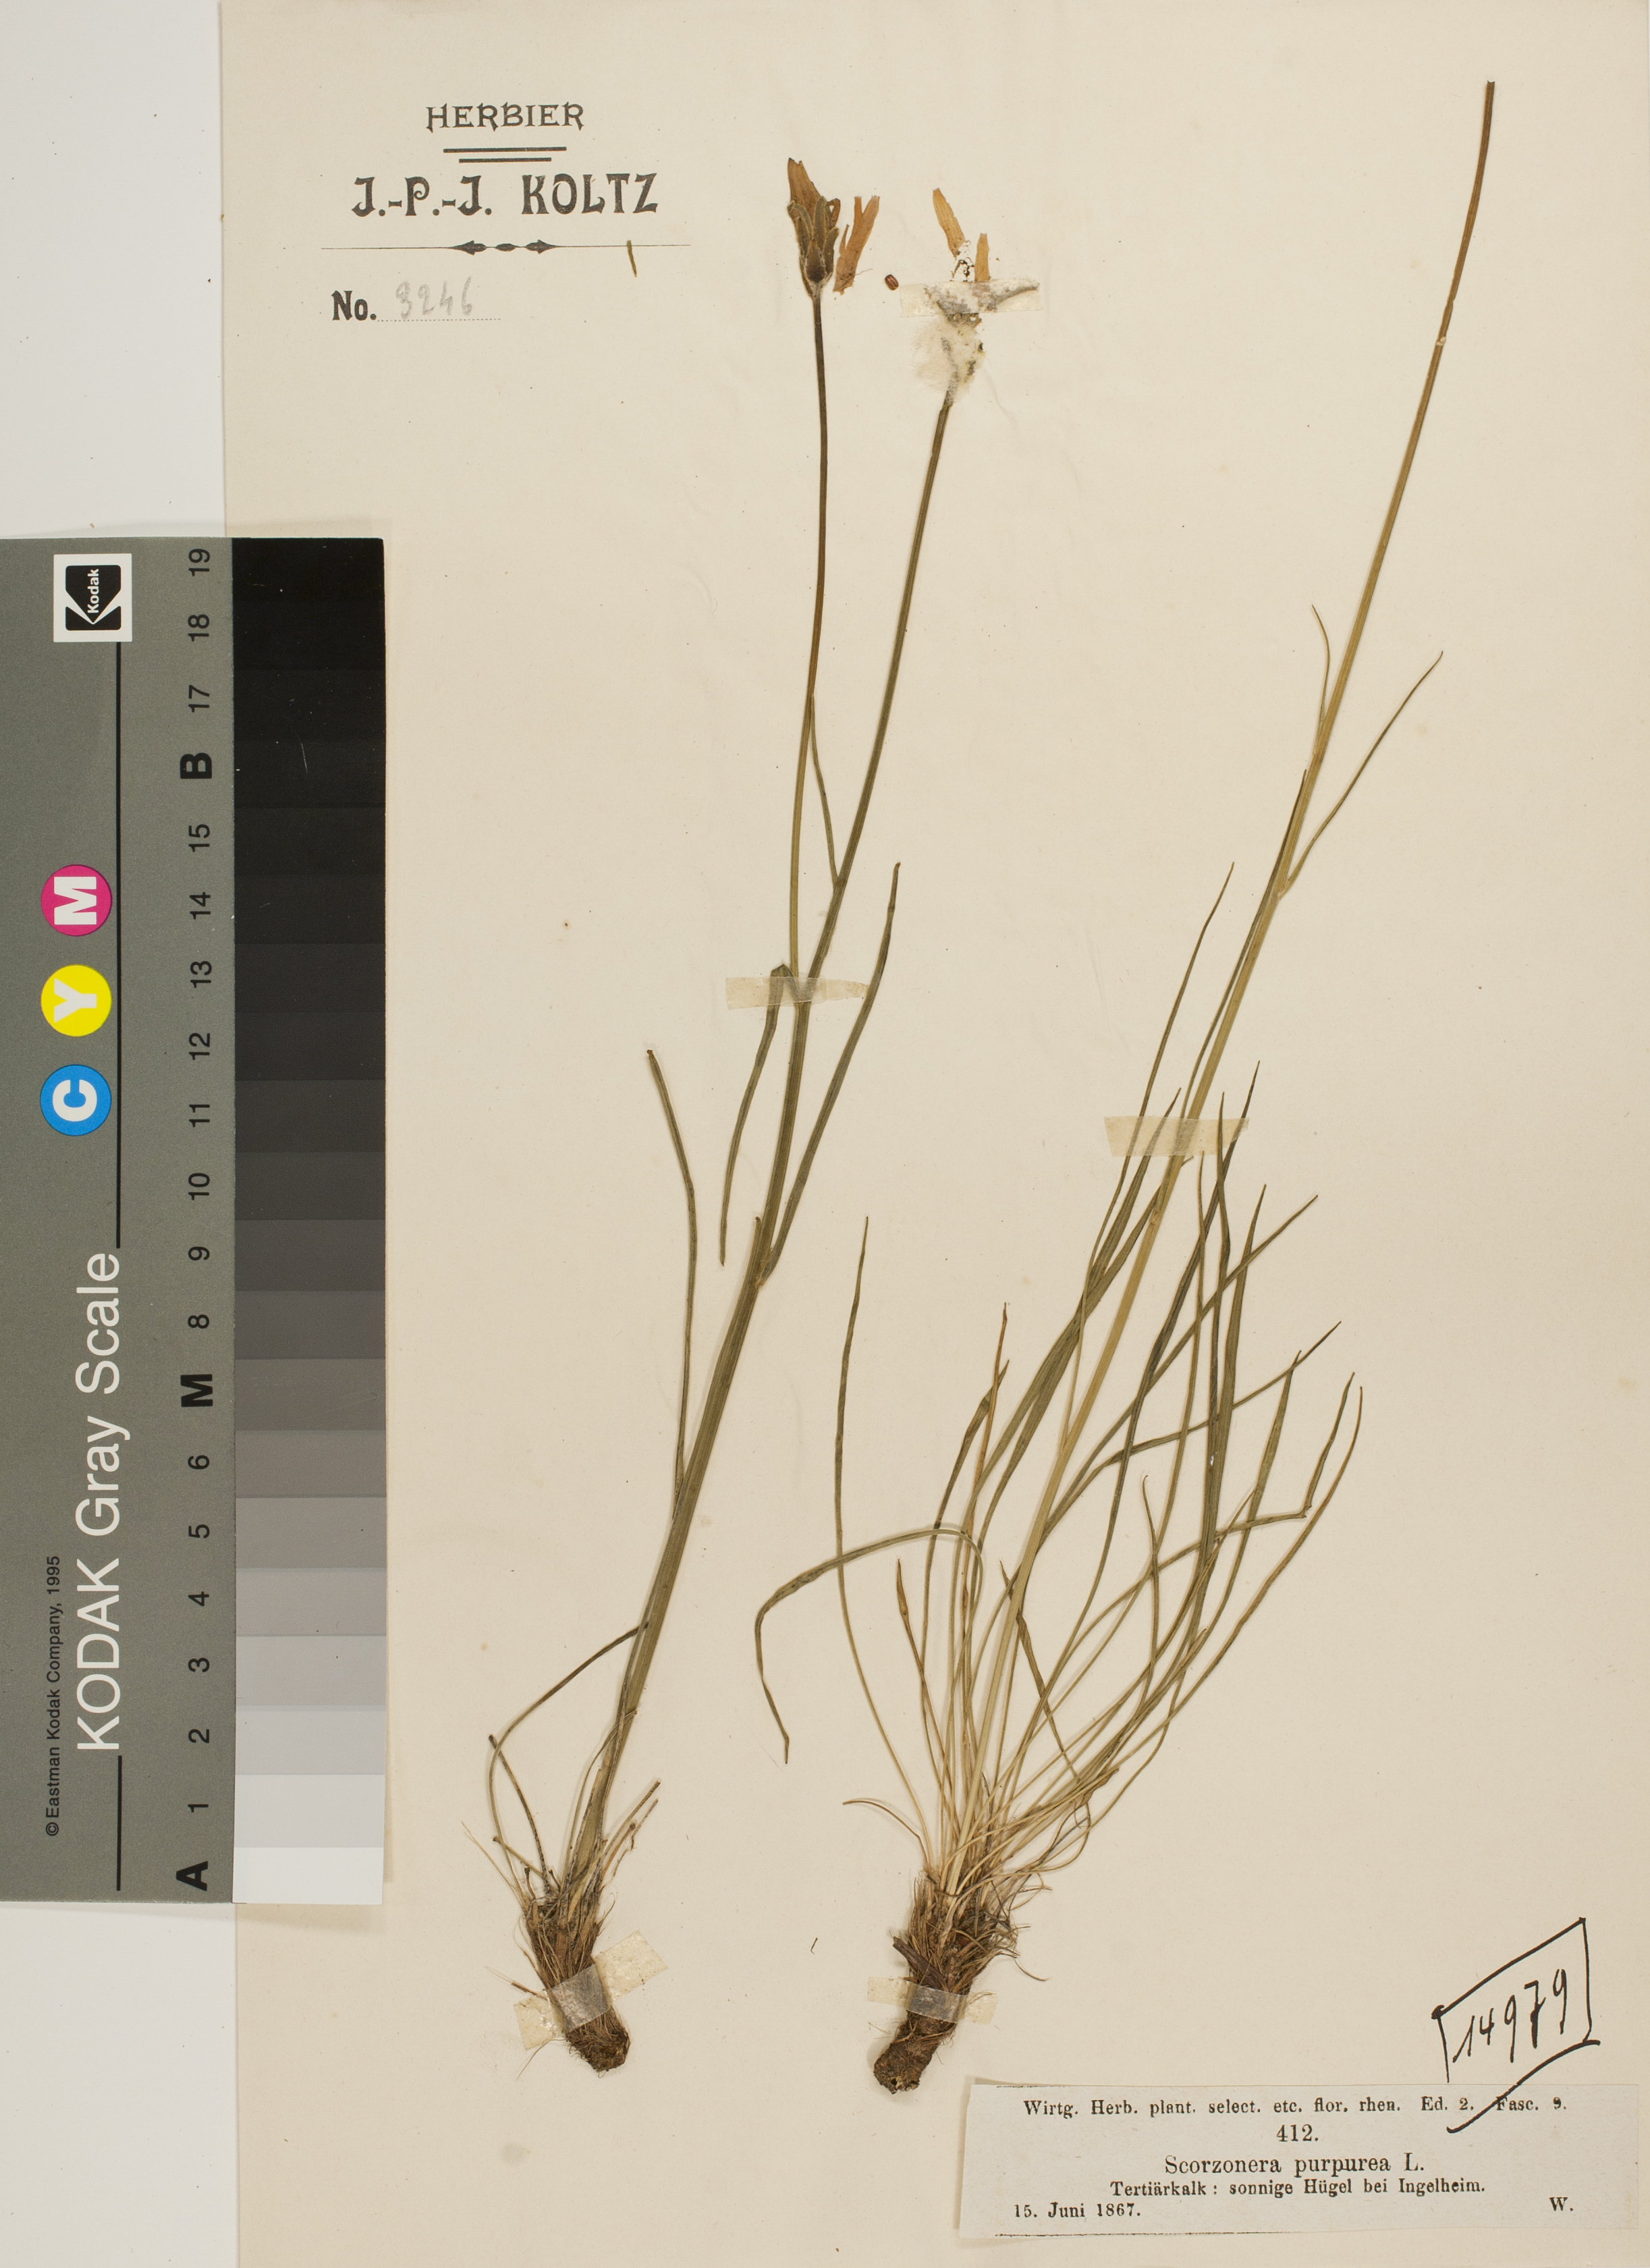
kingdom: Plantae
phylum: Tracheophyta
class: Magnoliopsida
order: Asterales
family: Asteraceae
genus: Scorzonera
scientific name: Scorzonera purpurea
